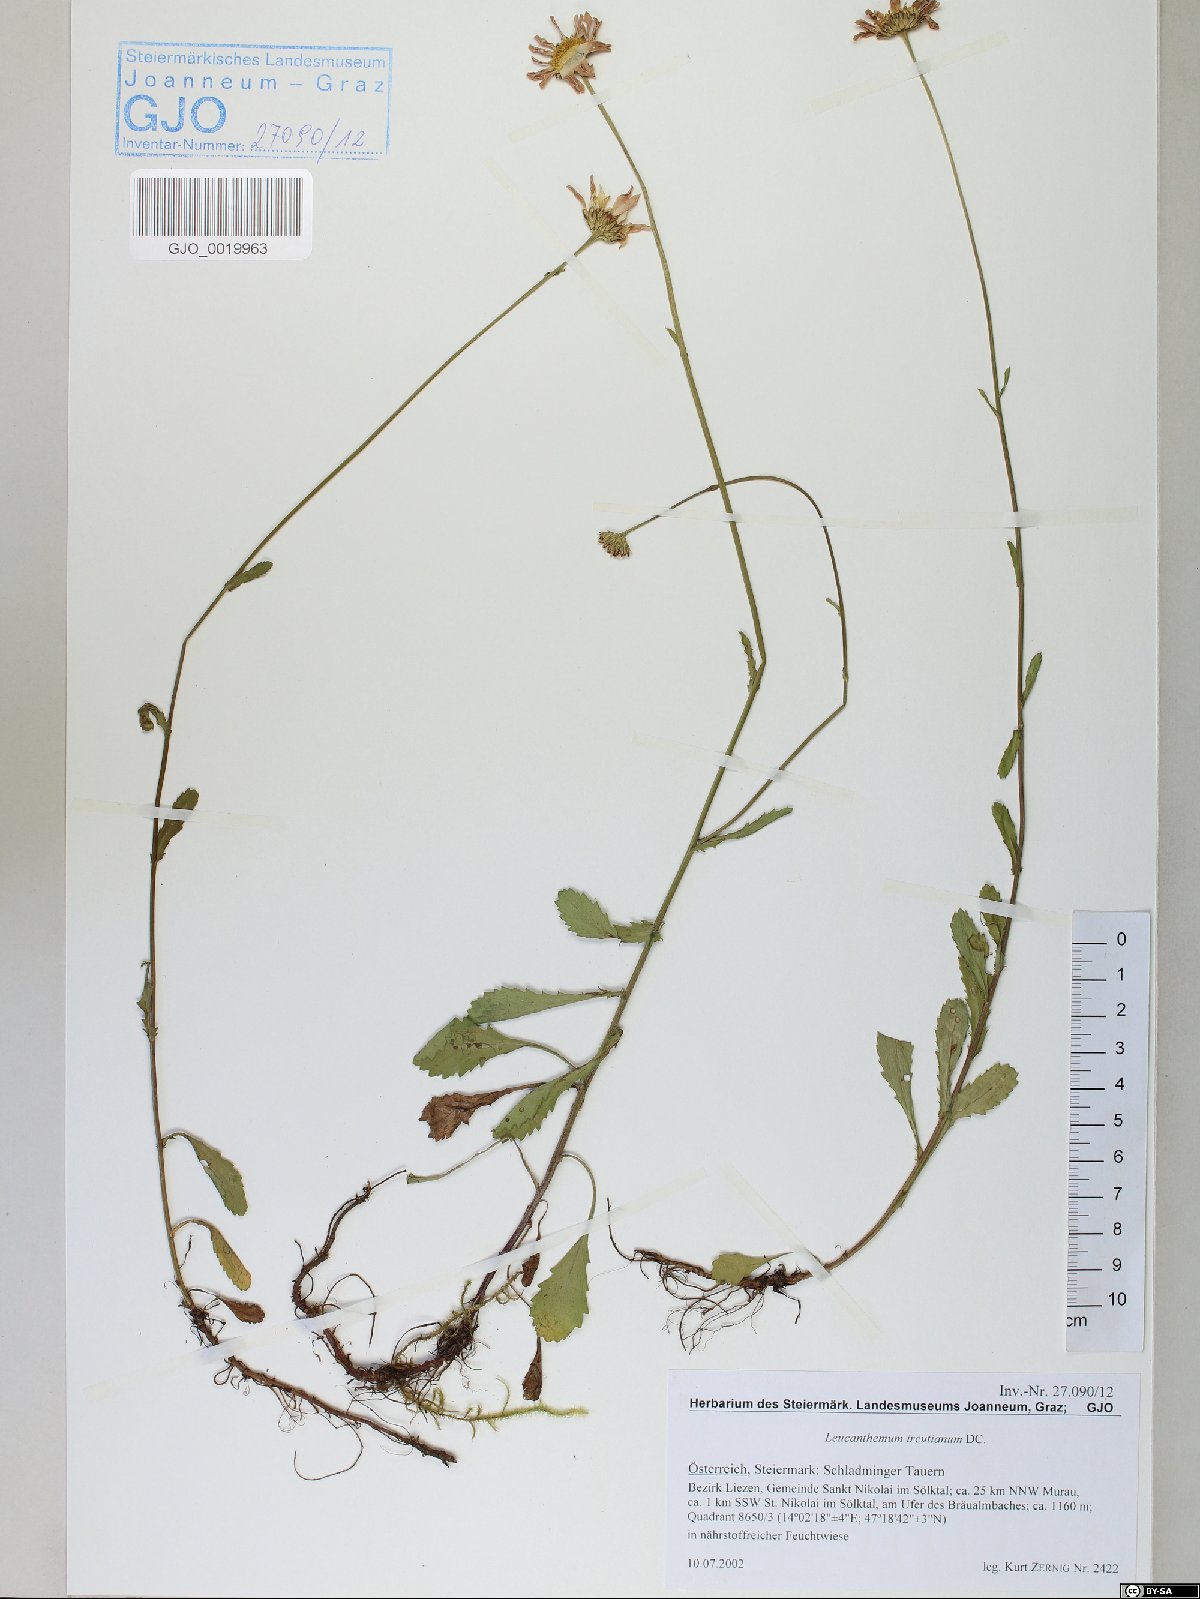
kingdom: Plantae
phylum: Tracheophyta
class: Magnoliopsida
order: Asterales
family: Asteraceae
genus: Leucanthemum
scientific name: Leucanthemum ircutianum
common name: Daisy
